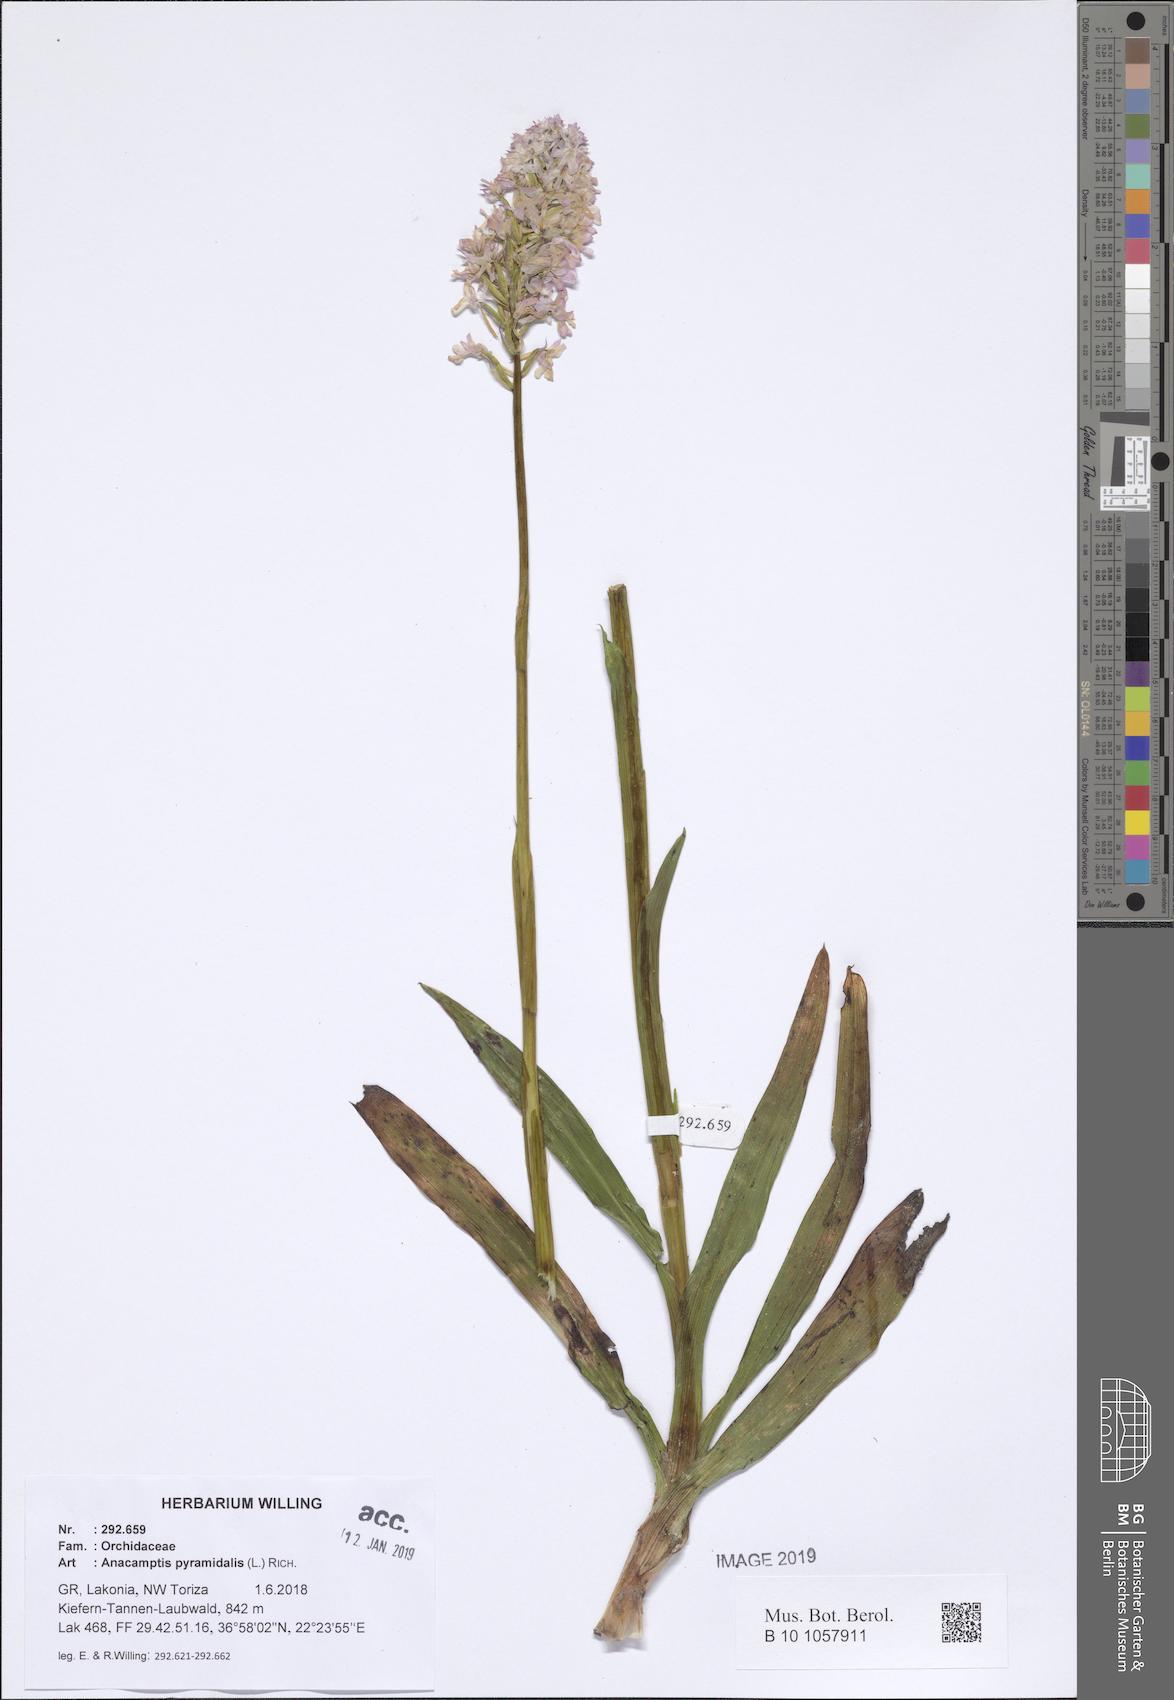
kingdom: Plantae
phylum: Tracheophyta
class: Liliopsida
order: Asparagales
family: Orchidaceae
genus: Anacamptis
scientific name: Anacamptis pyramidalis
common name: Pyramidal orchid
